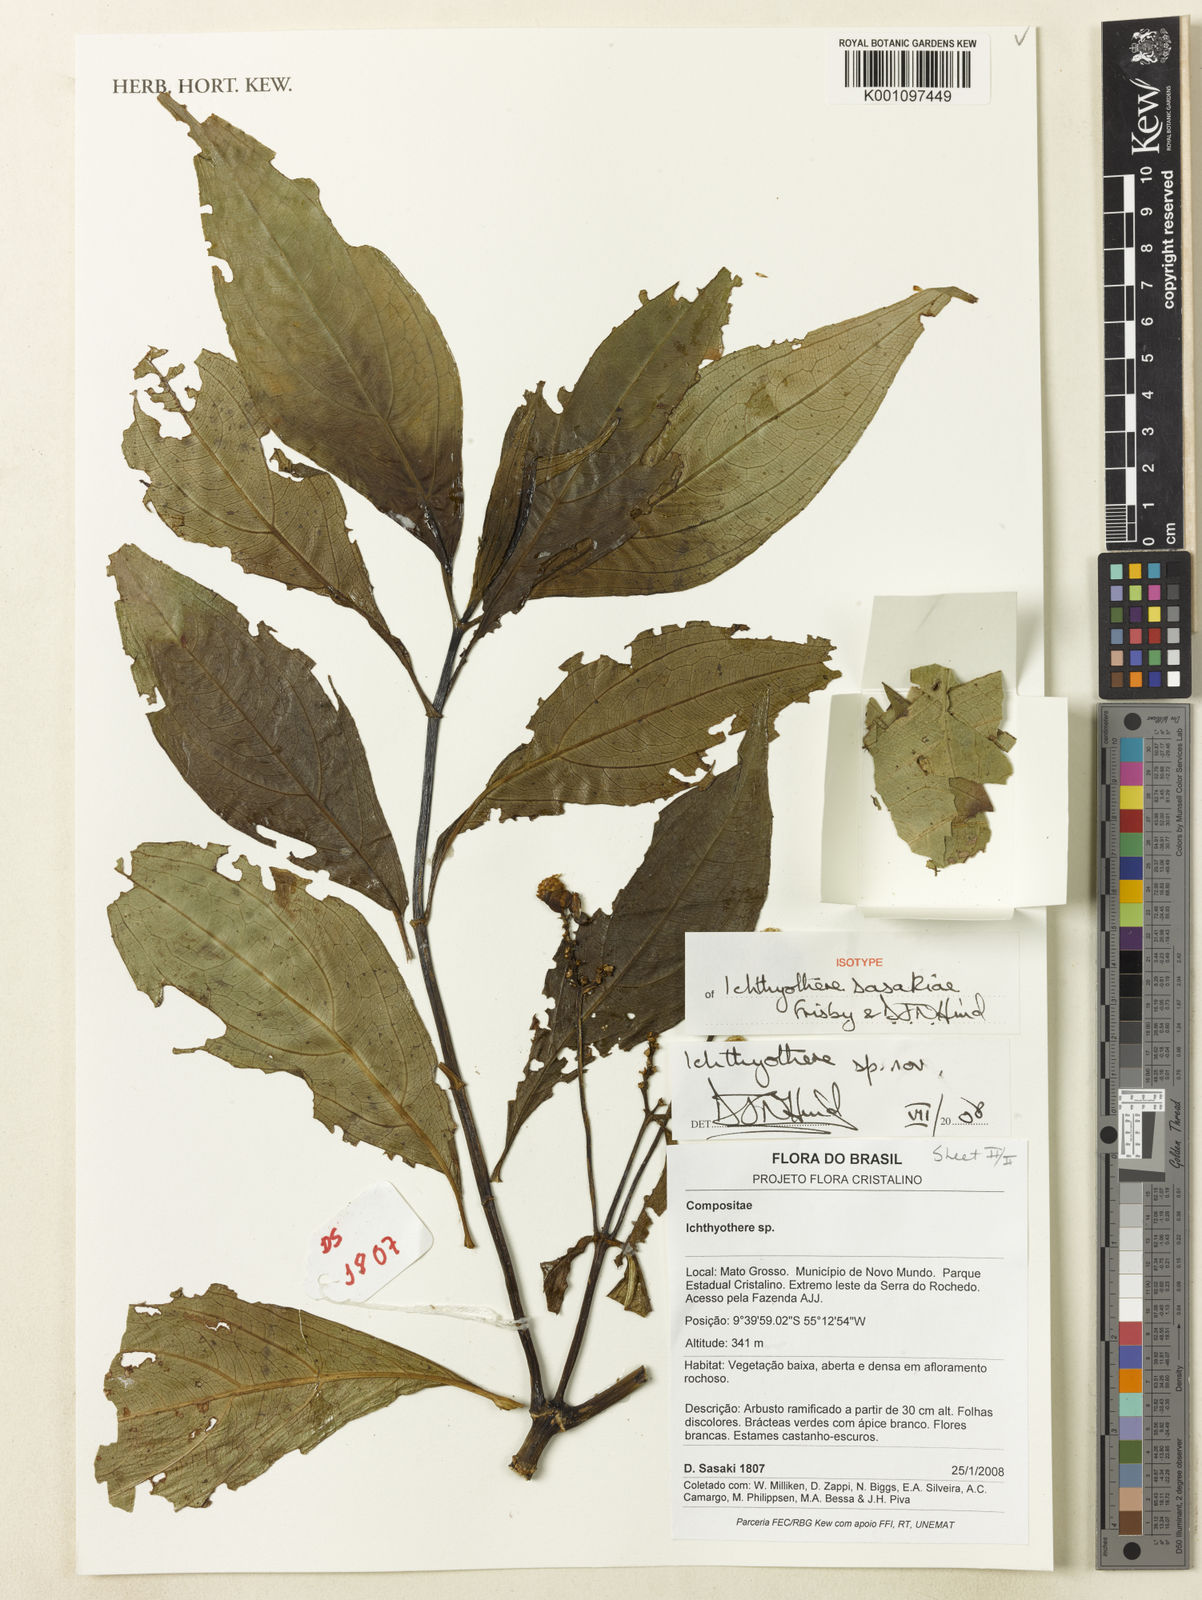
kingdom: Plantae
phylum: Tracheophyta
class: Magnoliopsida
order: Asterales
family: Asteraceae
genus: Ichthyothere
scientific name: Ichthyothere sasakiae
